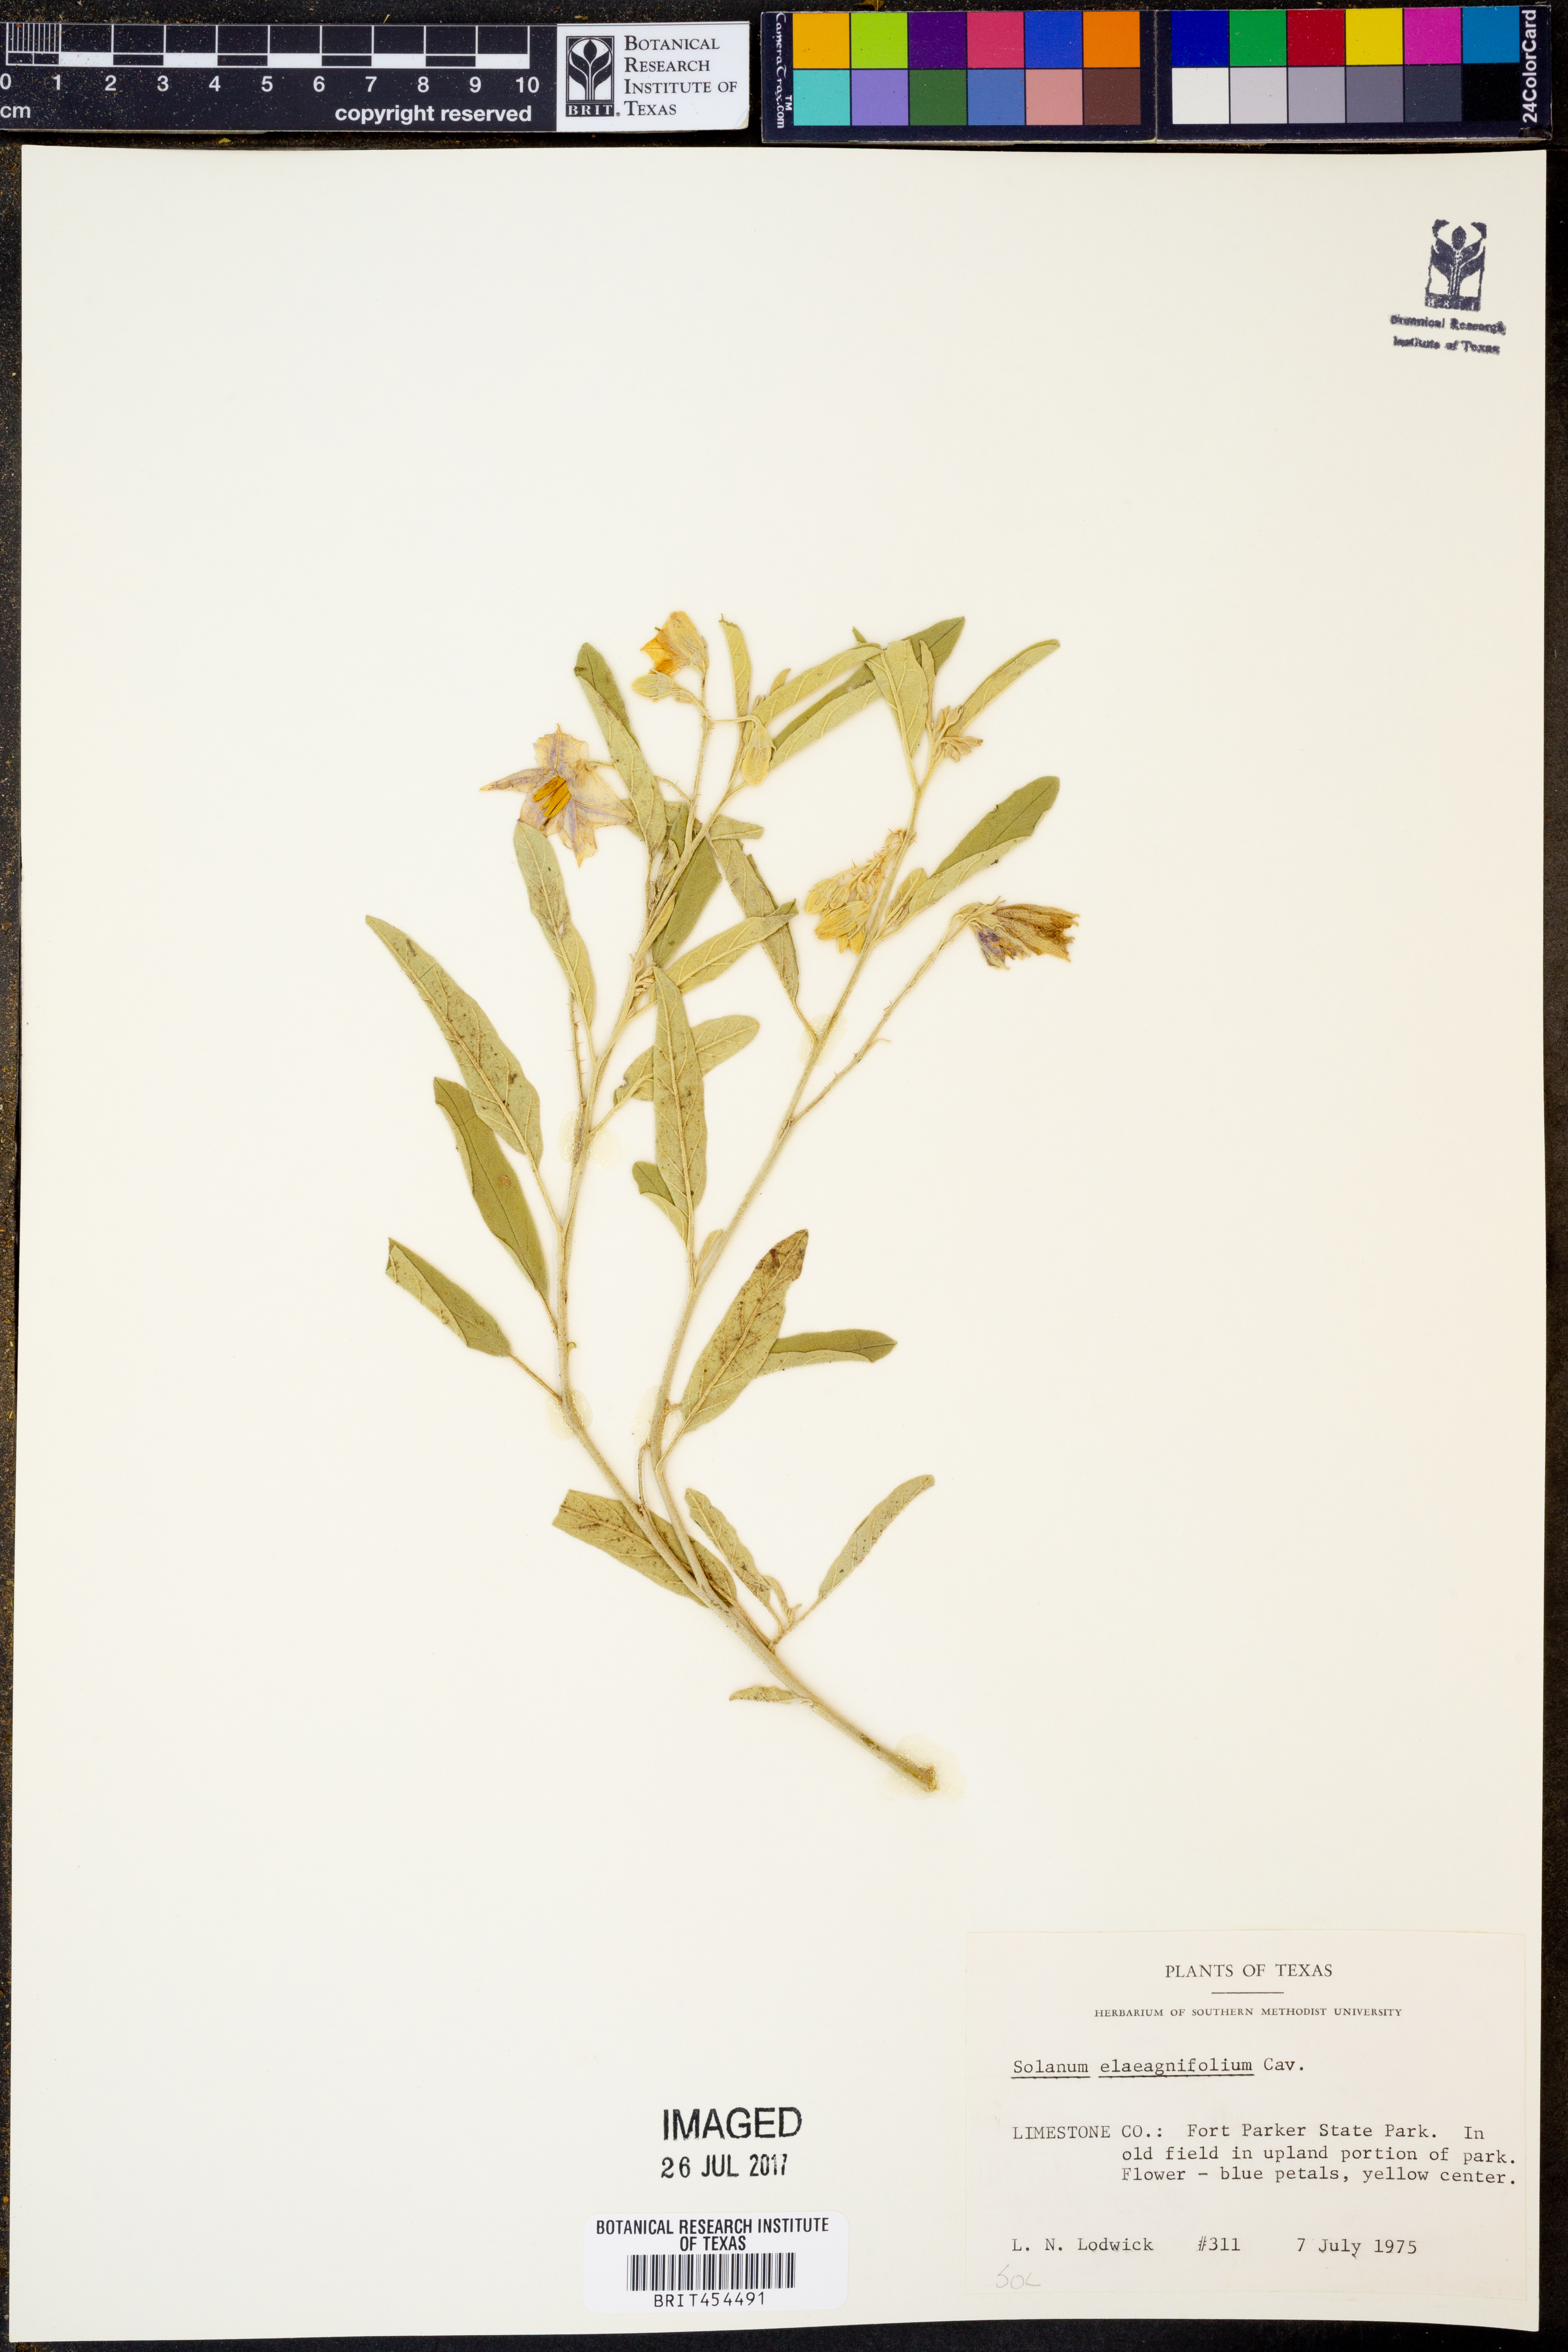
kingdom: Plantae
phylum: Tracheophyta
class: Magnoliopsida
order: Solanales
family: Solanaceae
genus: Solanum
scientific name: Solanum elaeagnifolium
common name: Silverleaf nightshade
